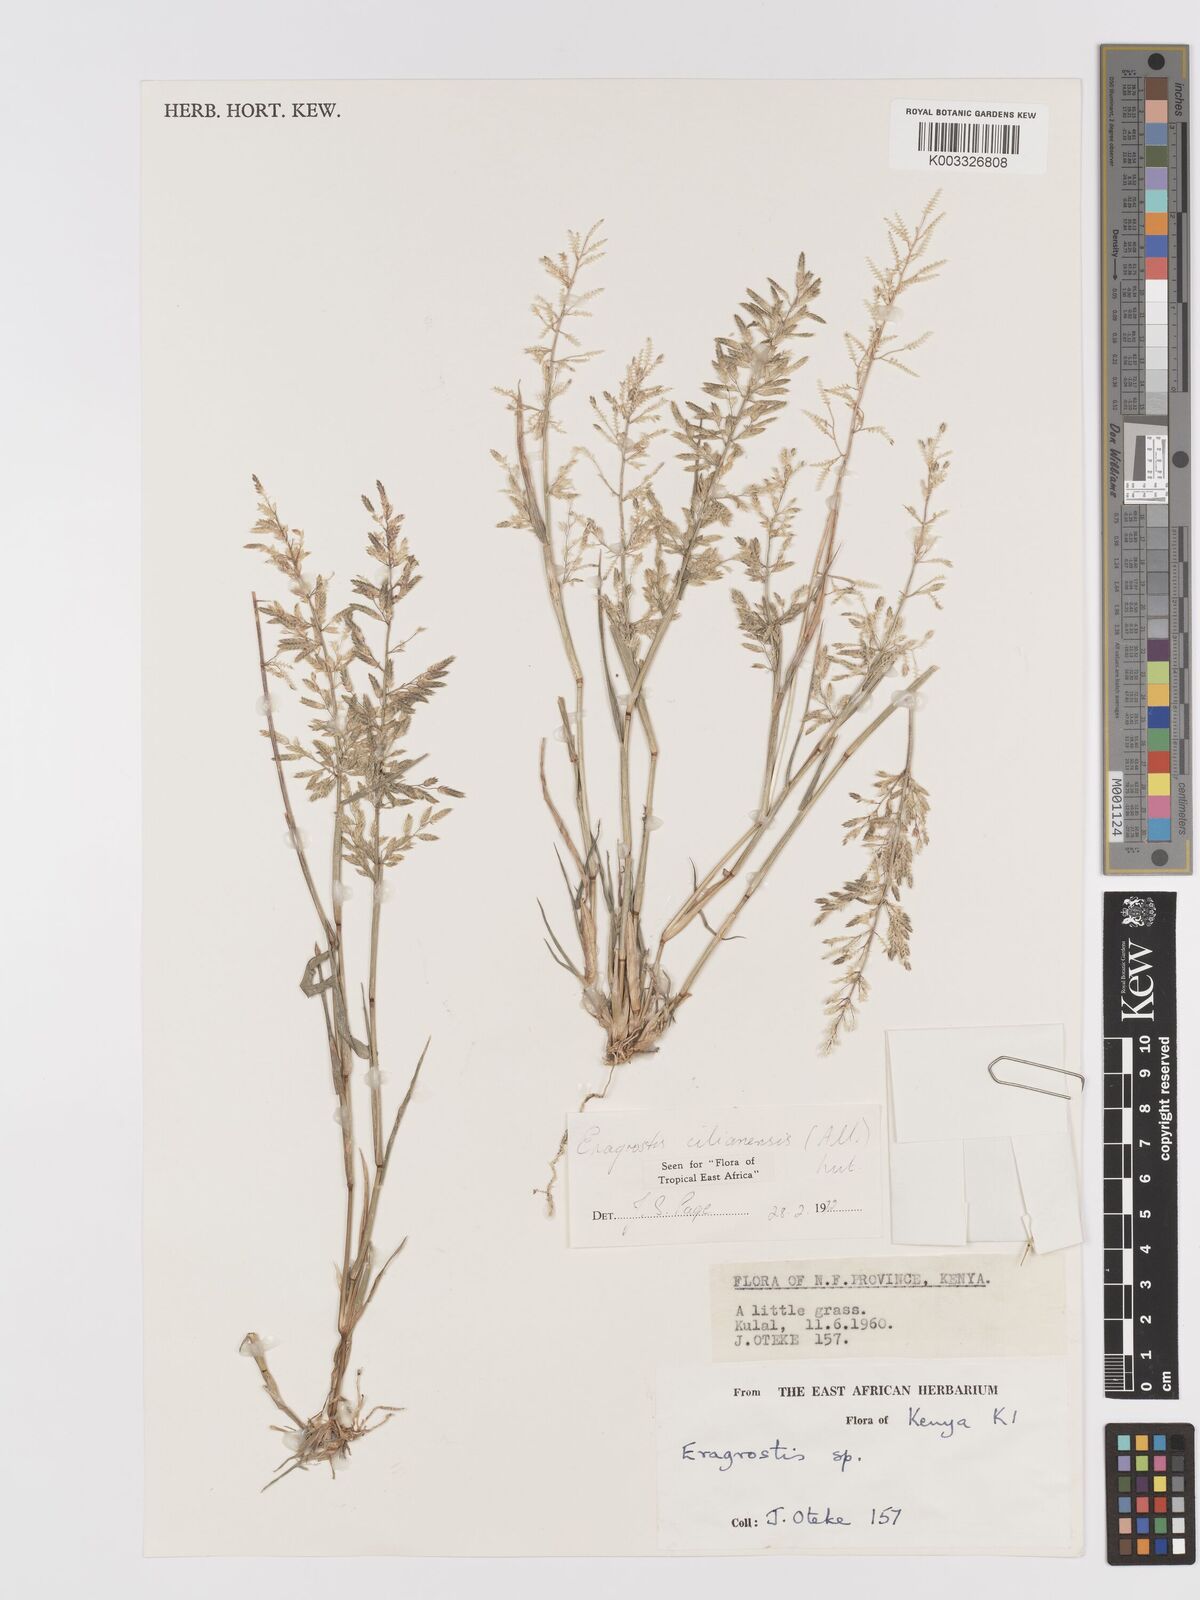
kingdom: Plantae
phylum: Tracheophyta
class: Liliopsida
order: Poales
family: Poaceae
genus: Eragrostis
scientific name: Eragrostis cilianensis
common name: Stinkgrass
